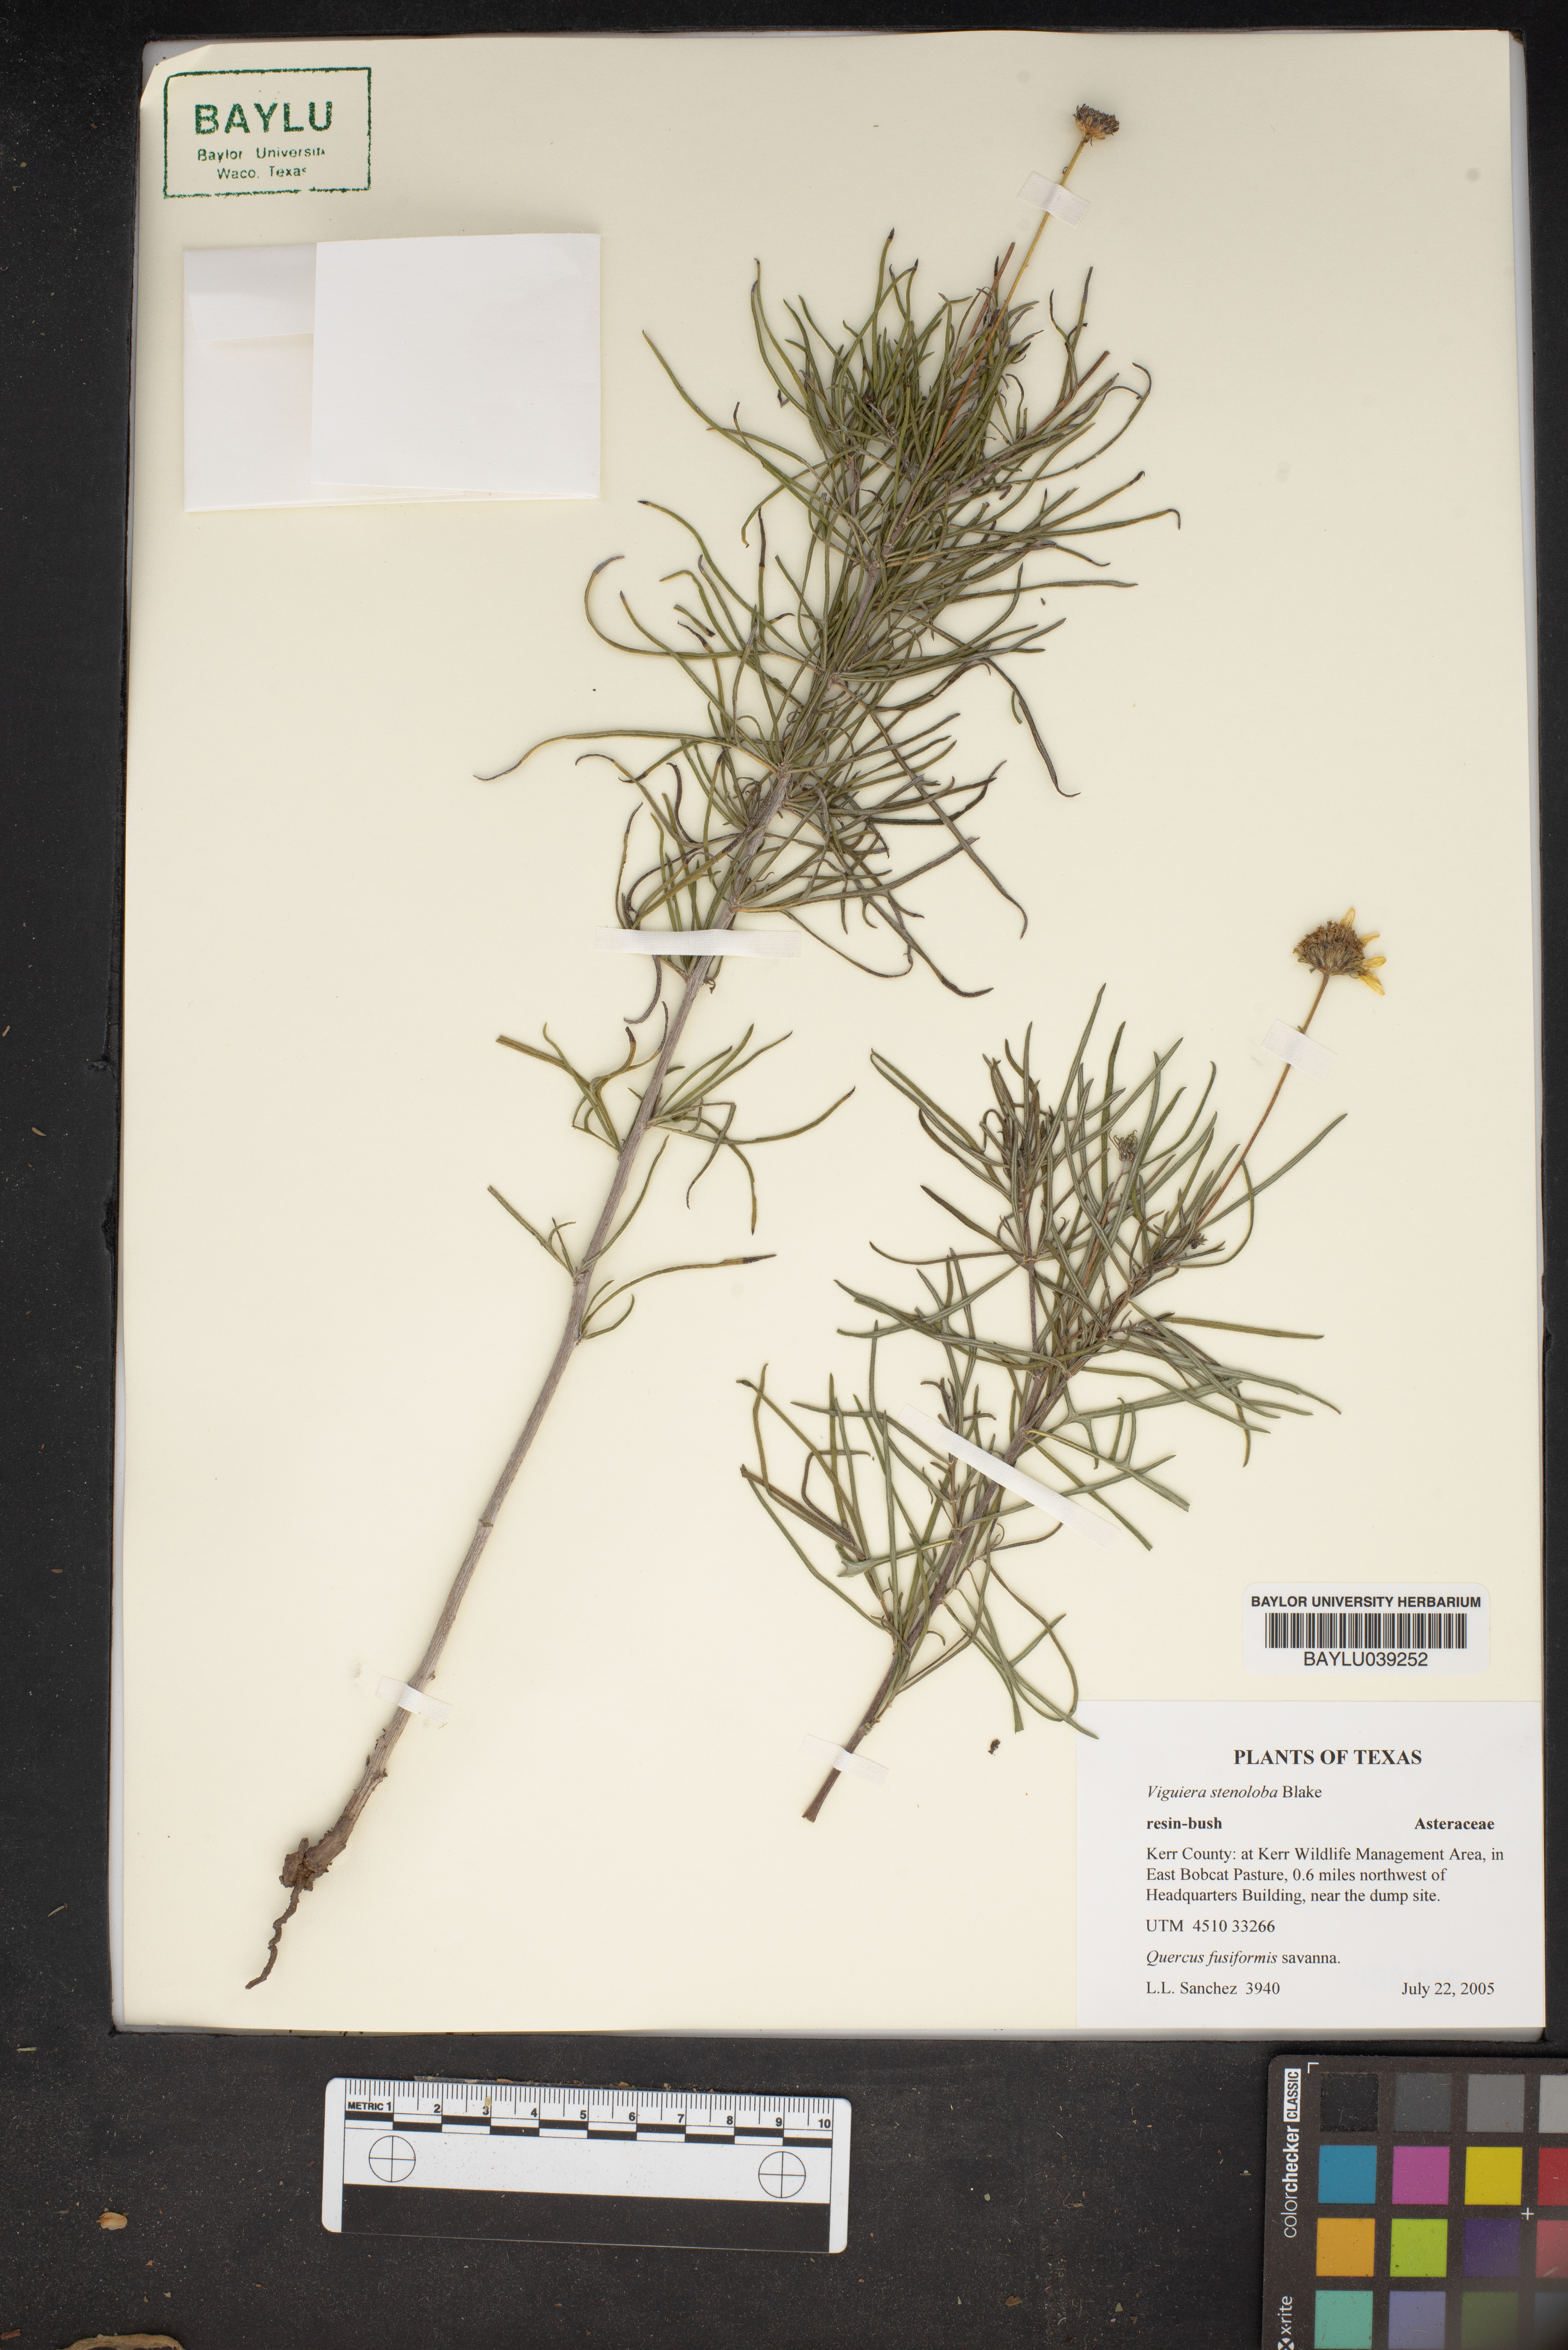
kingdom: Plantae
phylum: Tracheophyta
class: Magnoliopsida
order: Asterales
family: Asteraceae
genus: Sidneya
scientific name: Sidneya tenuifolia
